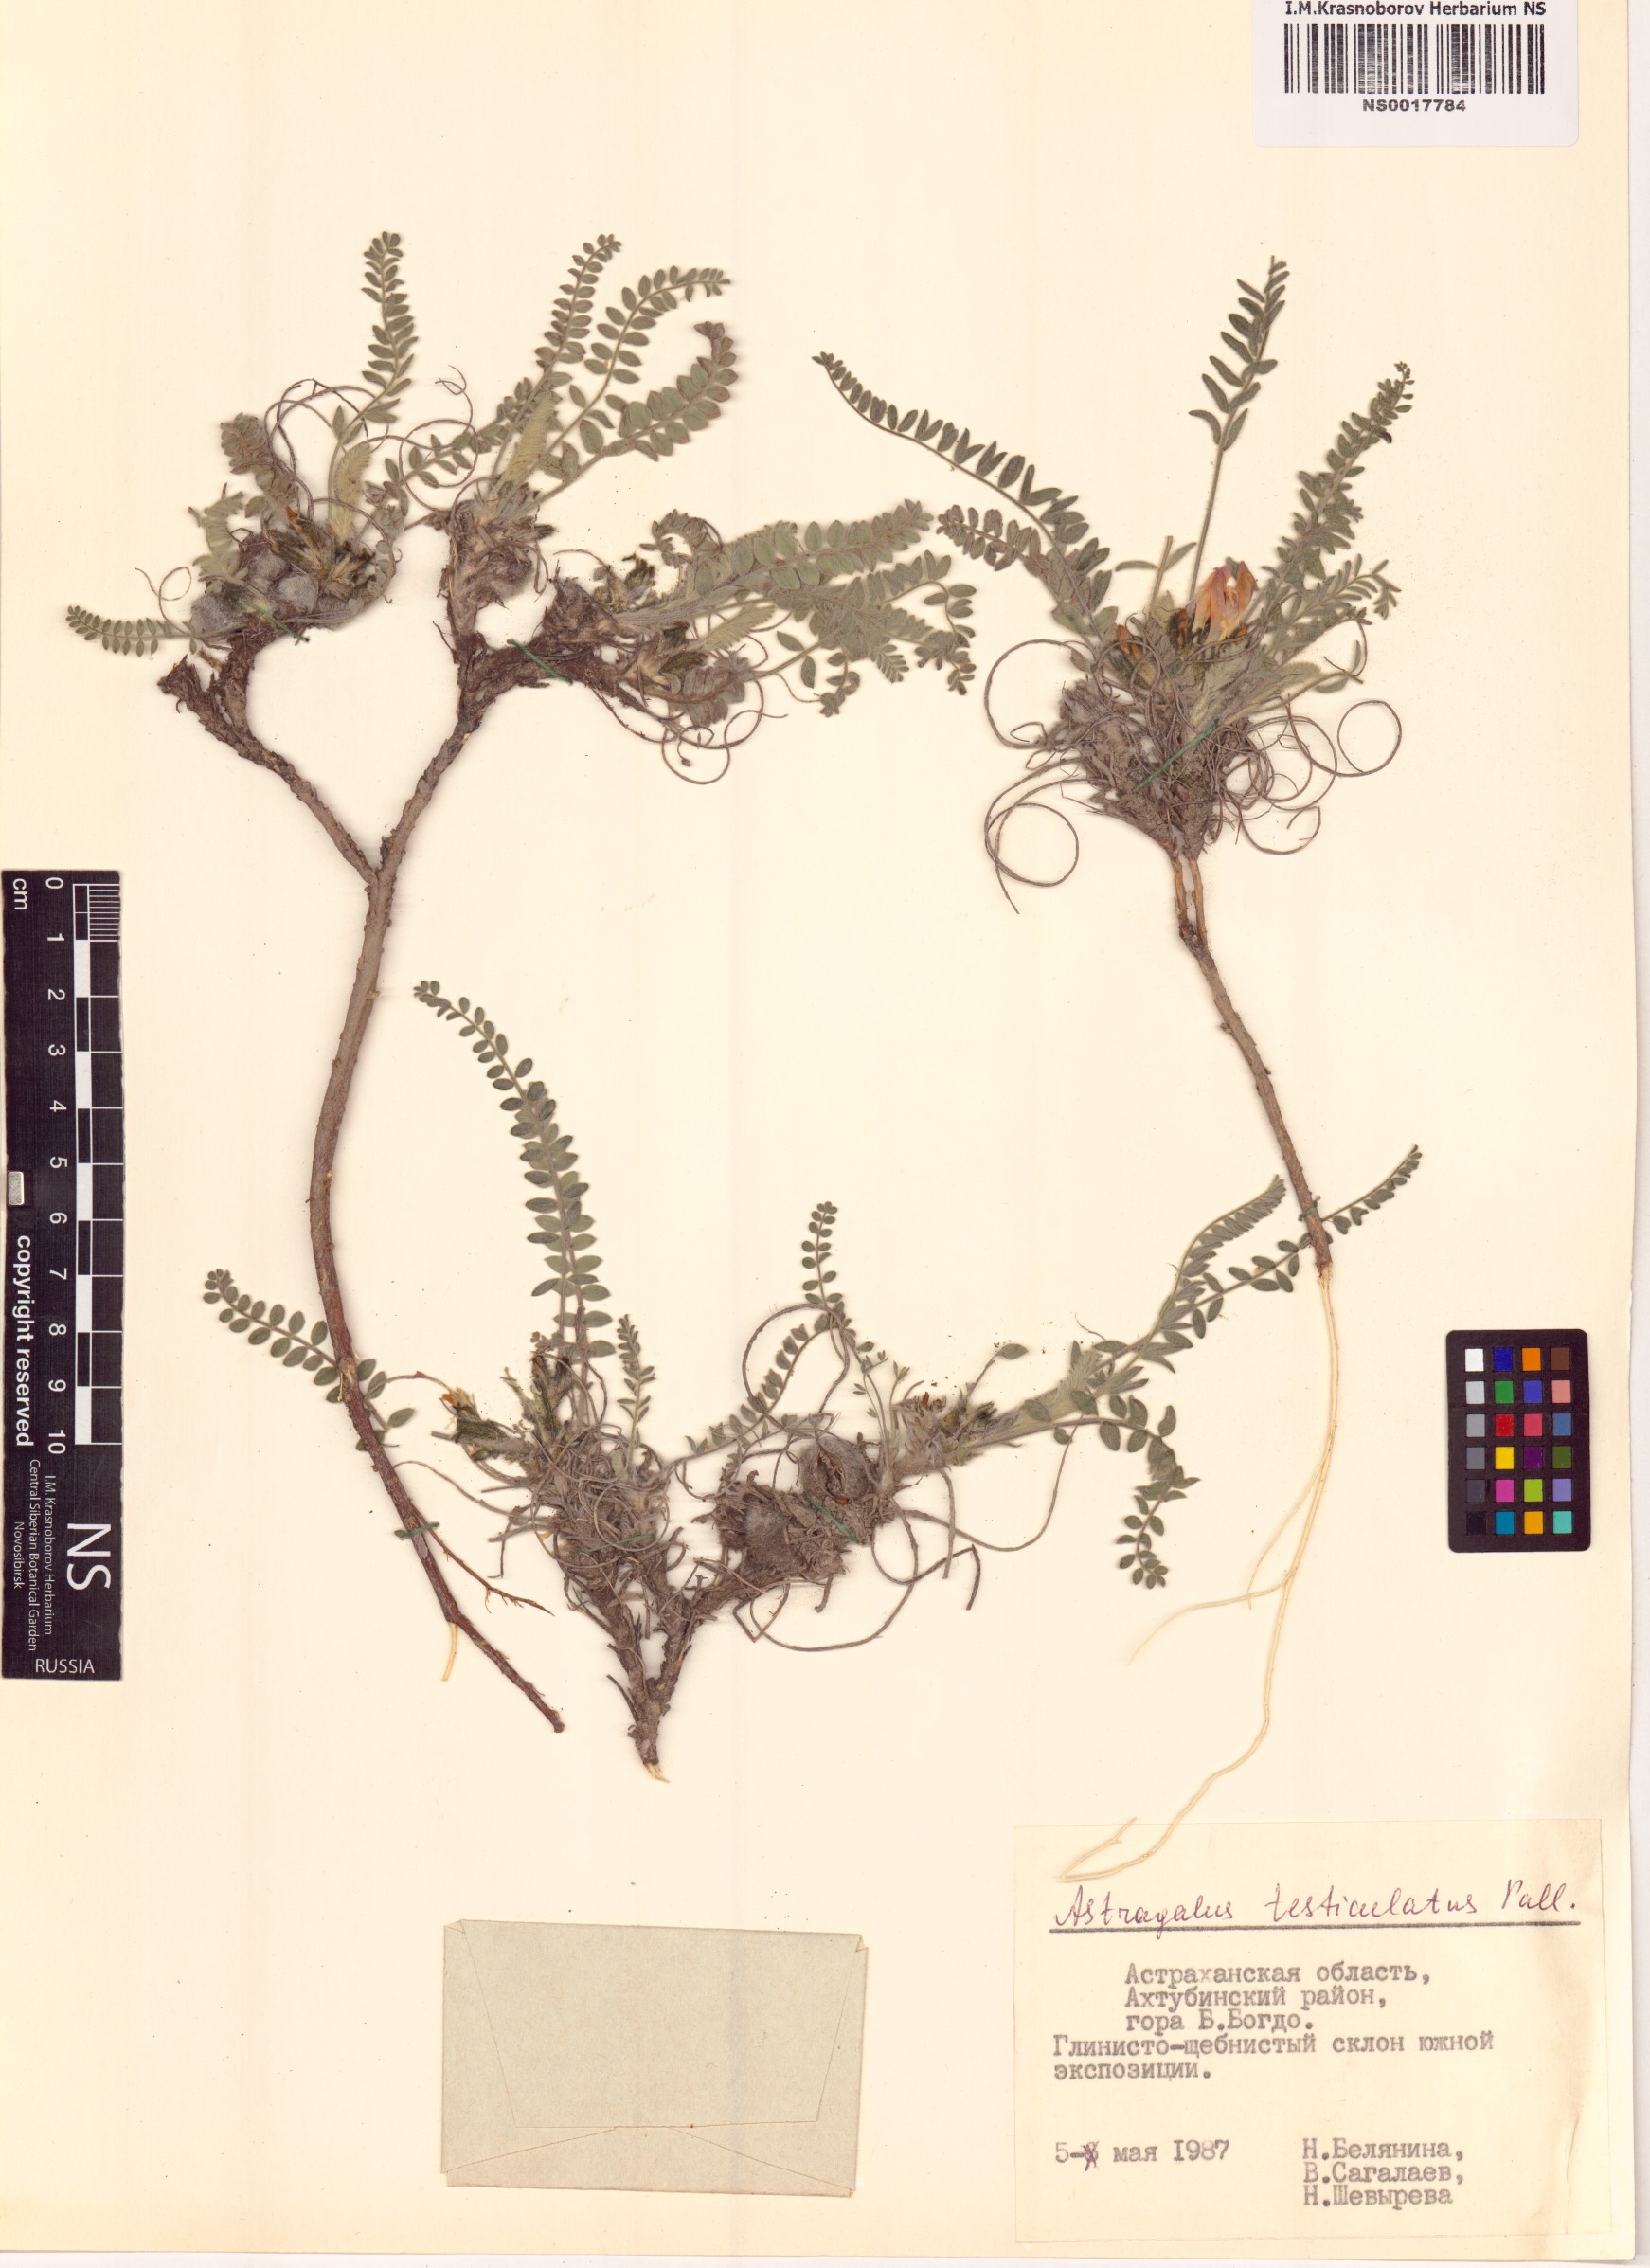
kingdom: Plantae
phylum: Tracheophyta
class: Magnoliopsida
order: Fabales
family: Fabaceae
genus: Astragalus
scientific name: Astragalus testiculatus
